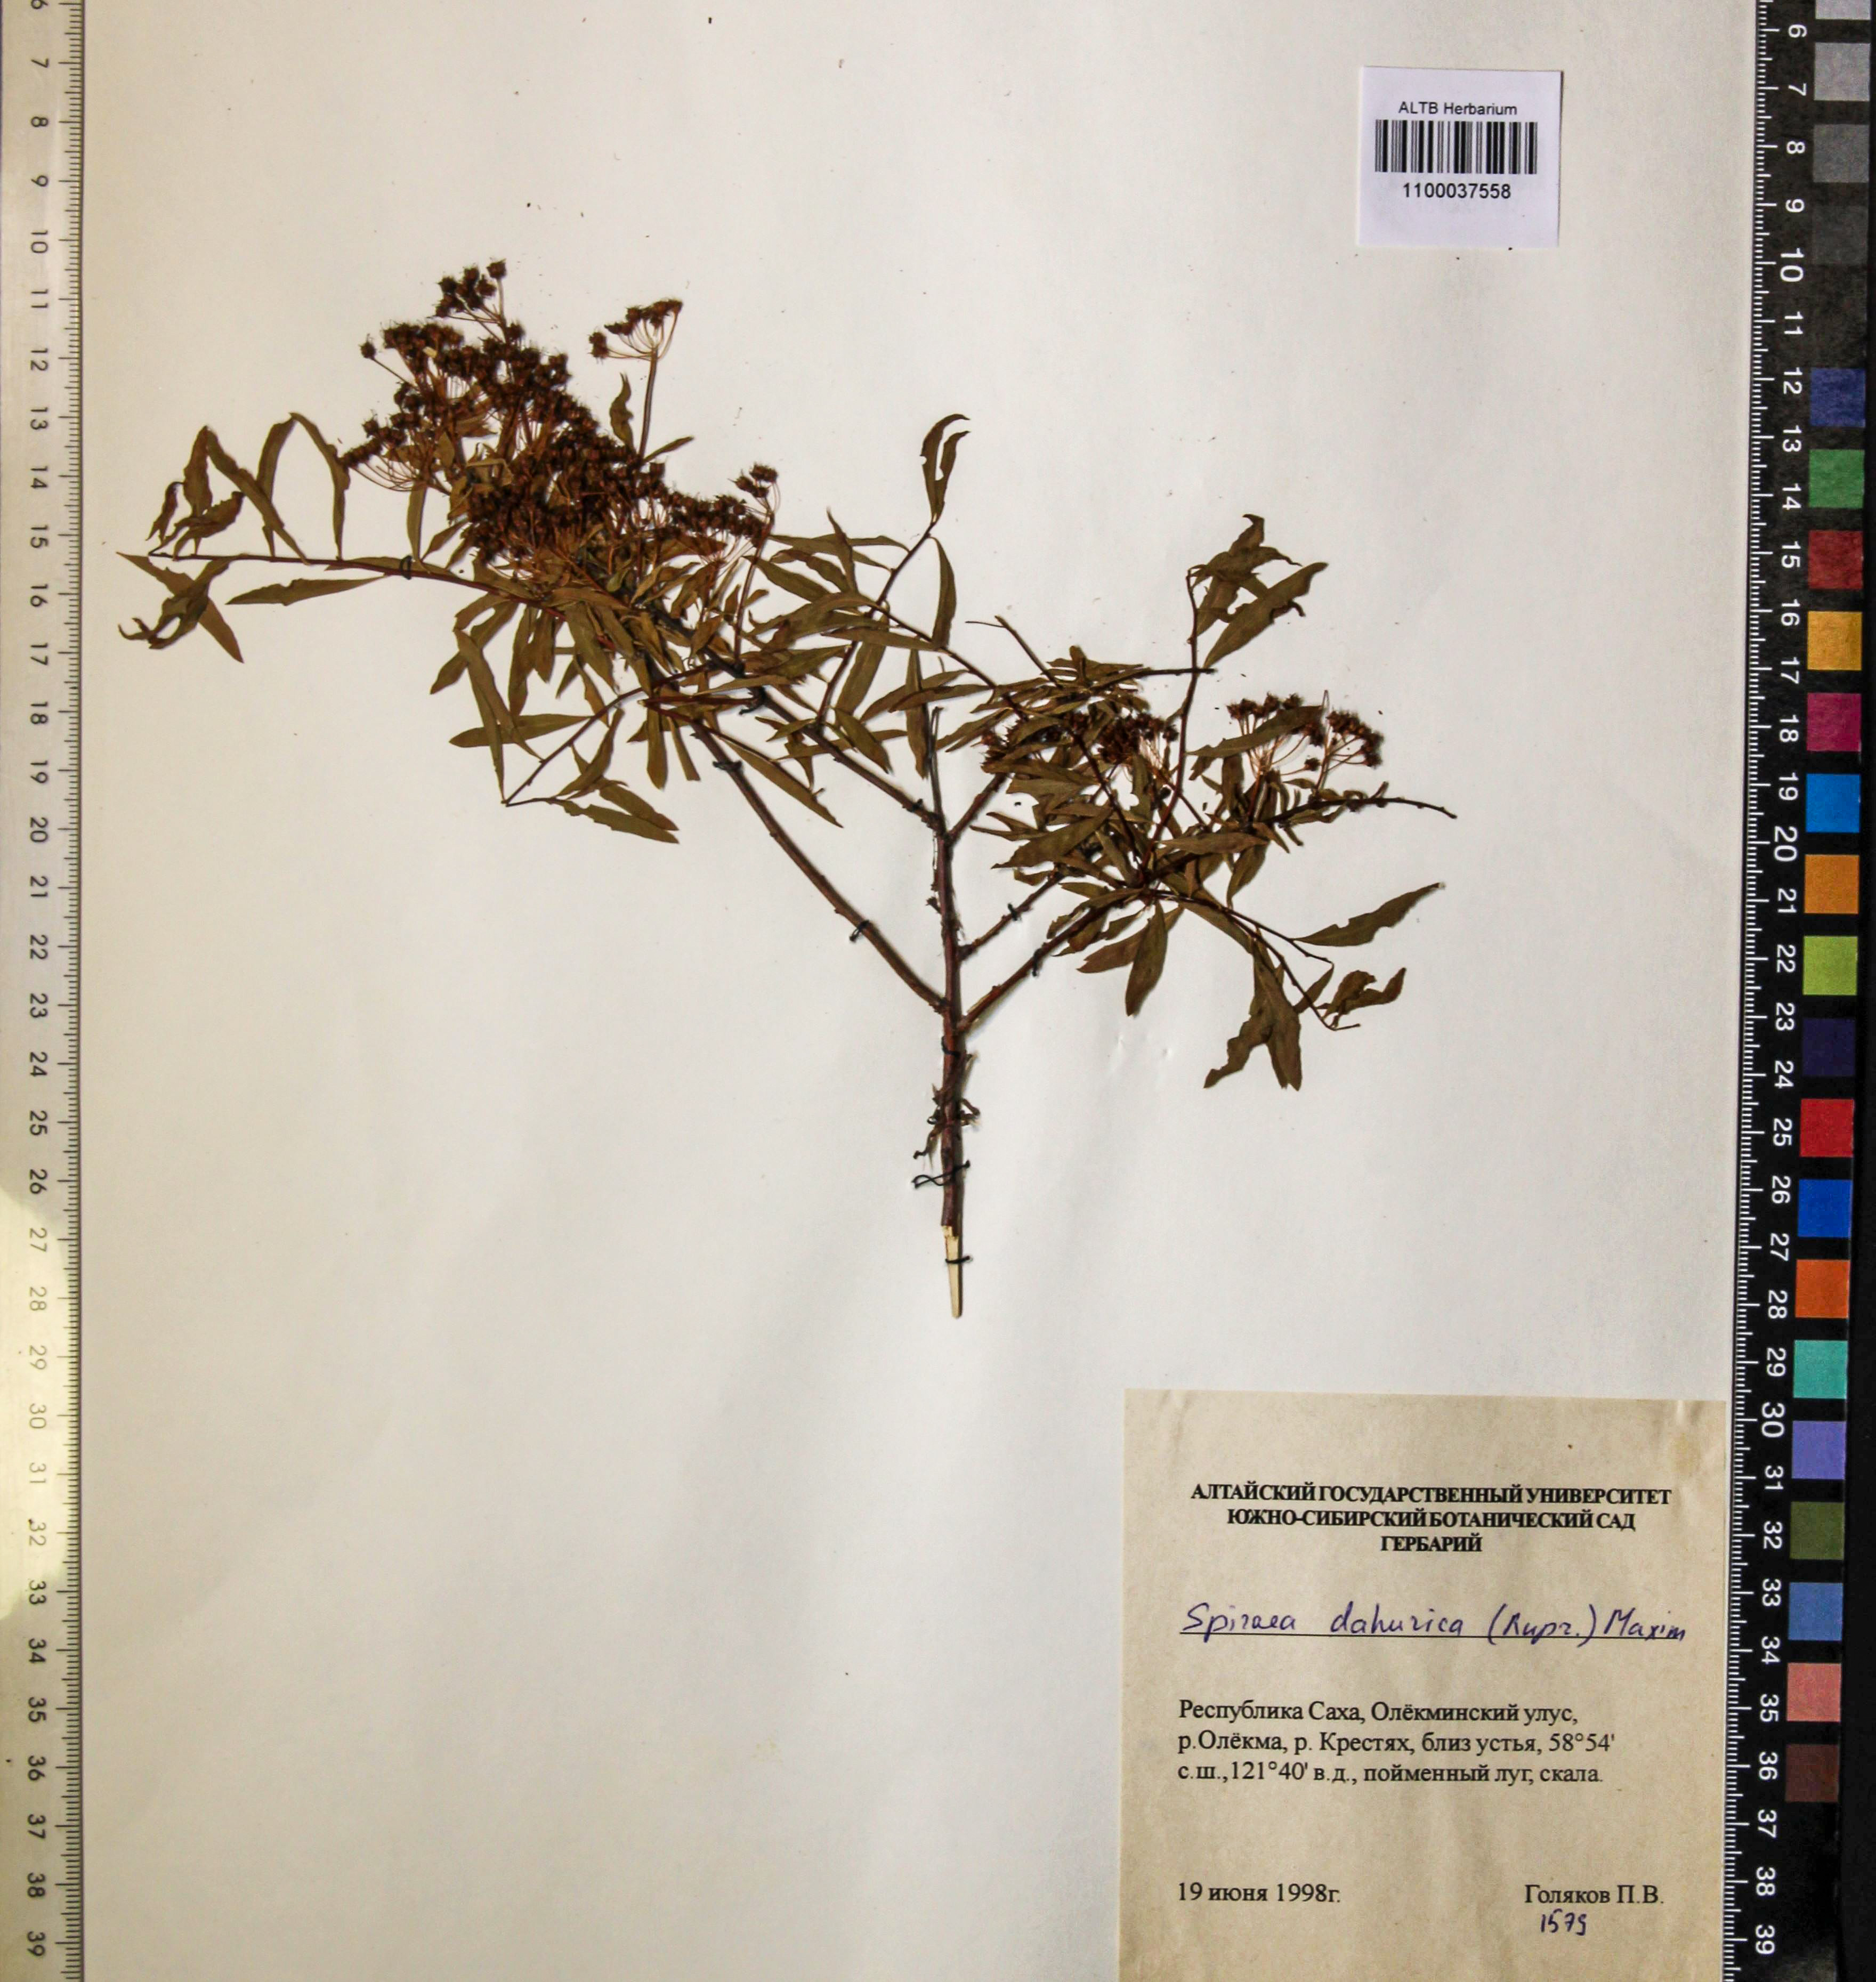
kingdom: Plantae
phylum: Tracheophyta
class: Magnoliopsida
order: Rosales
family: Rosaceae
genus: Spiraea
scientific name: Spiraea dahurica
